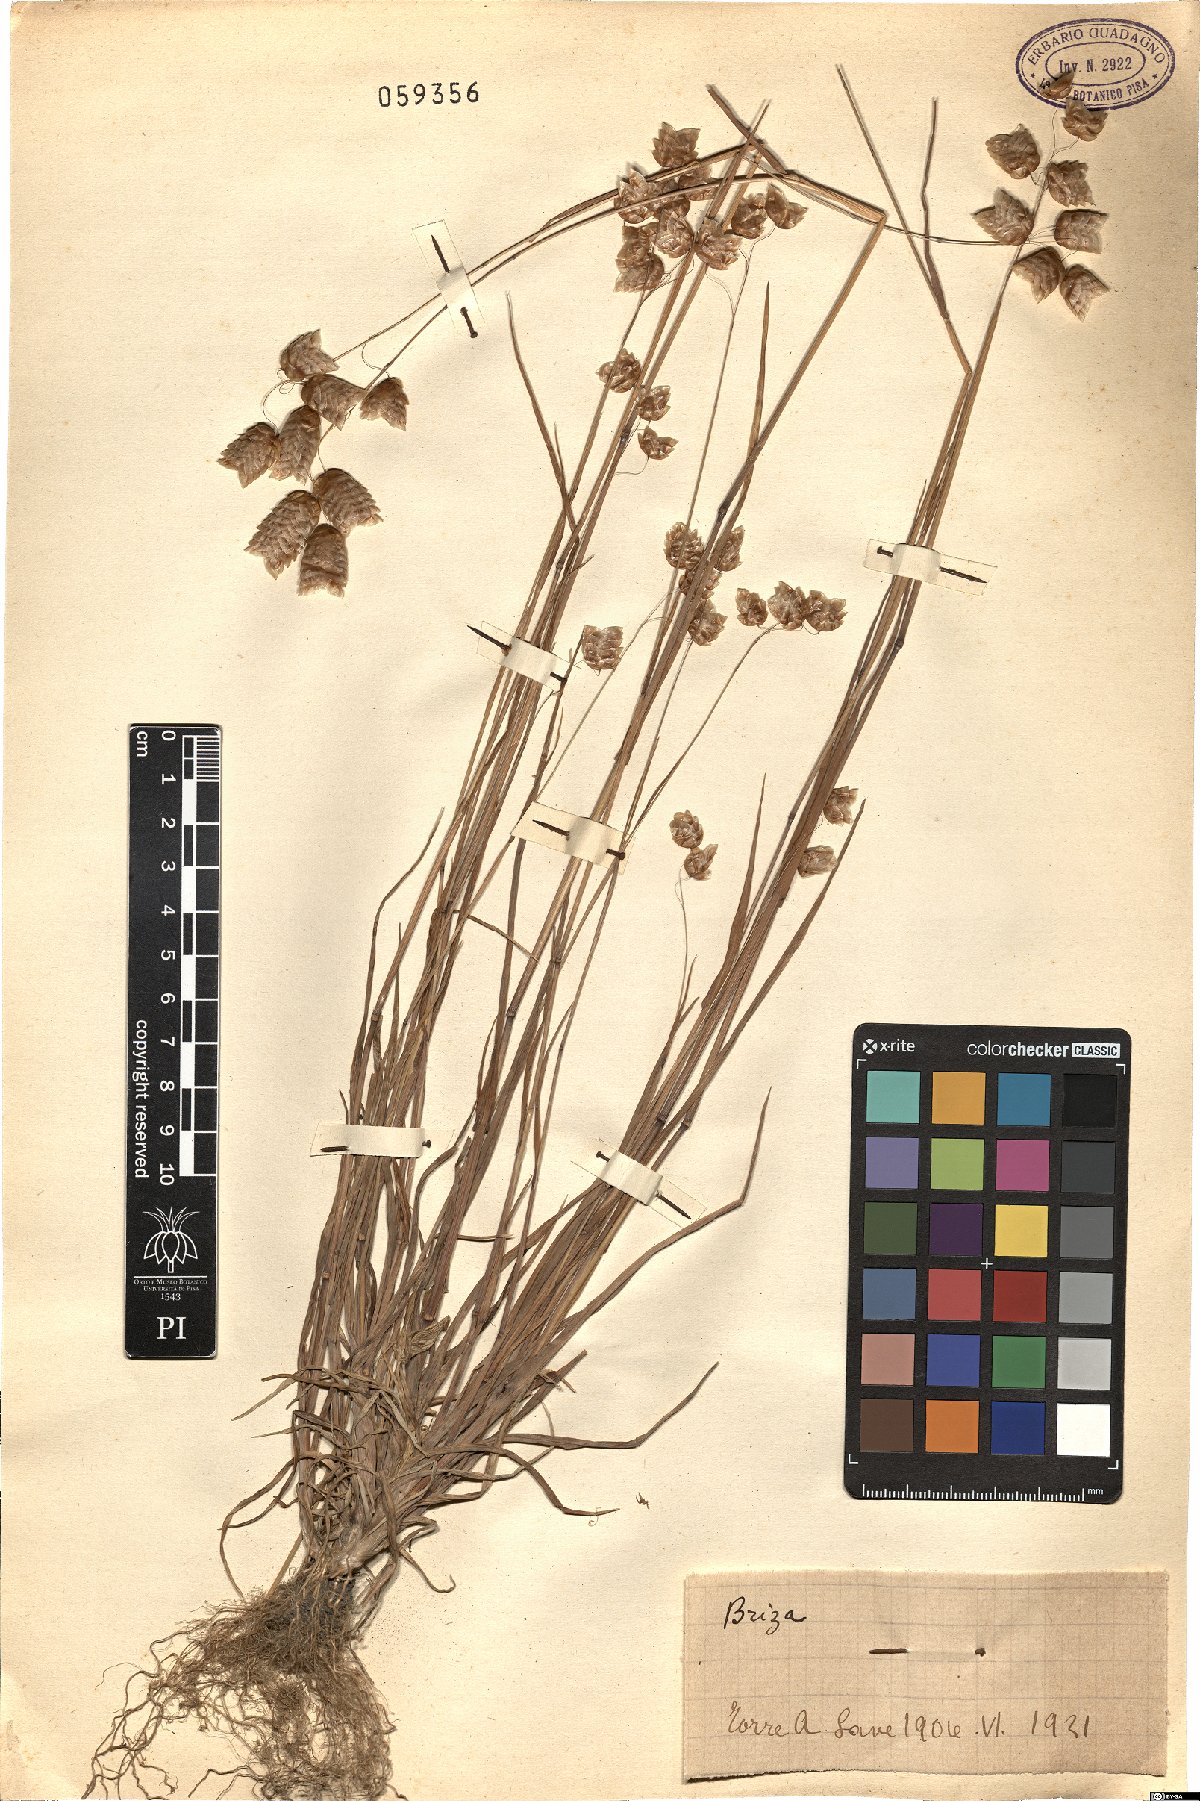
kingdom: Plantae
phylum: Tracheophyta
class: Liliopsida
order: Poales
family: Poaceae
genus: Briza
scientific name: Briza
